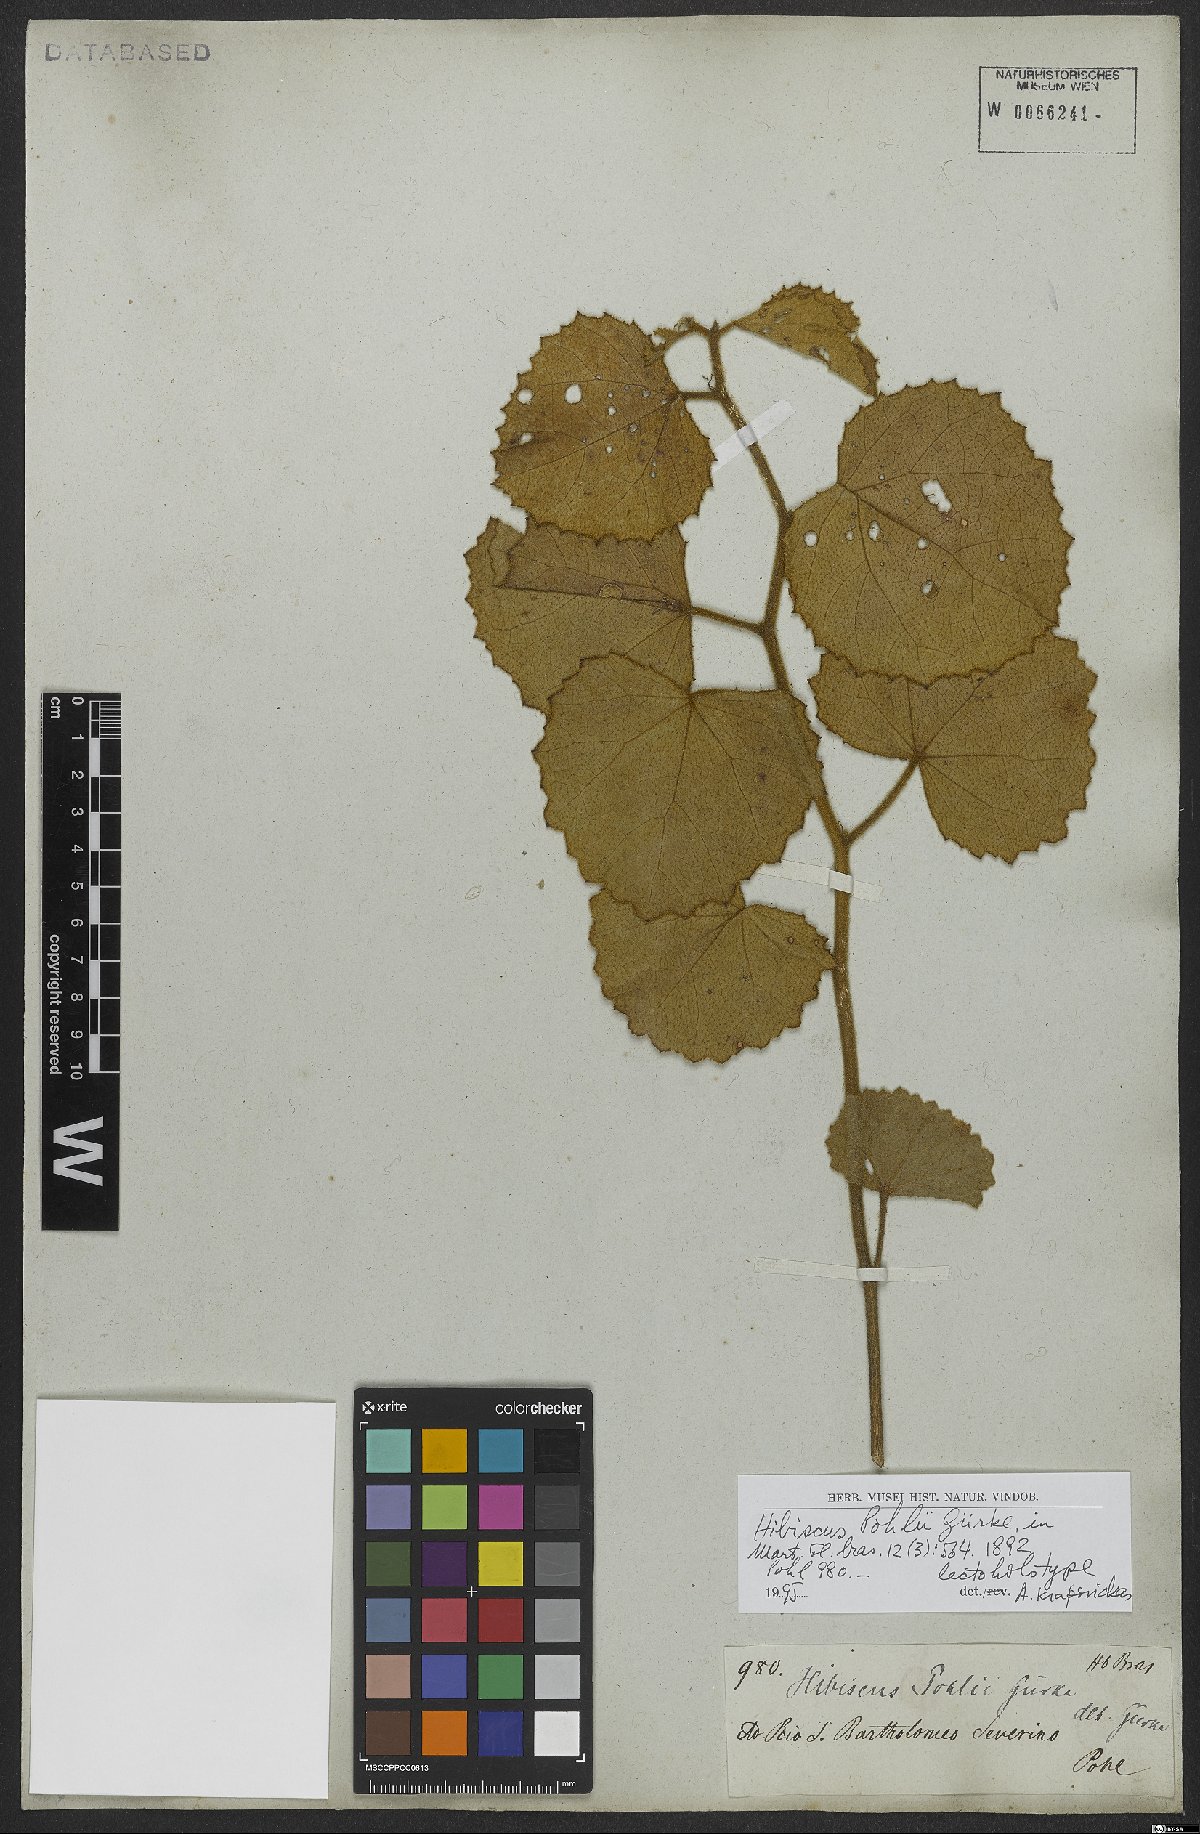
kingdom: Plantae
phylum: Tracheophyta
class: Magnoliopsida
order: Malvales
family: Malvaceae
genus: Hibiscus
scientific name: Hibiscus pohlii
